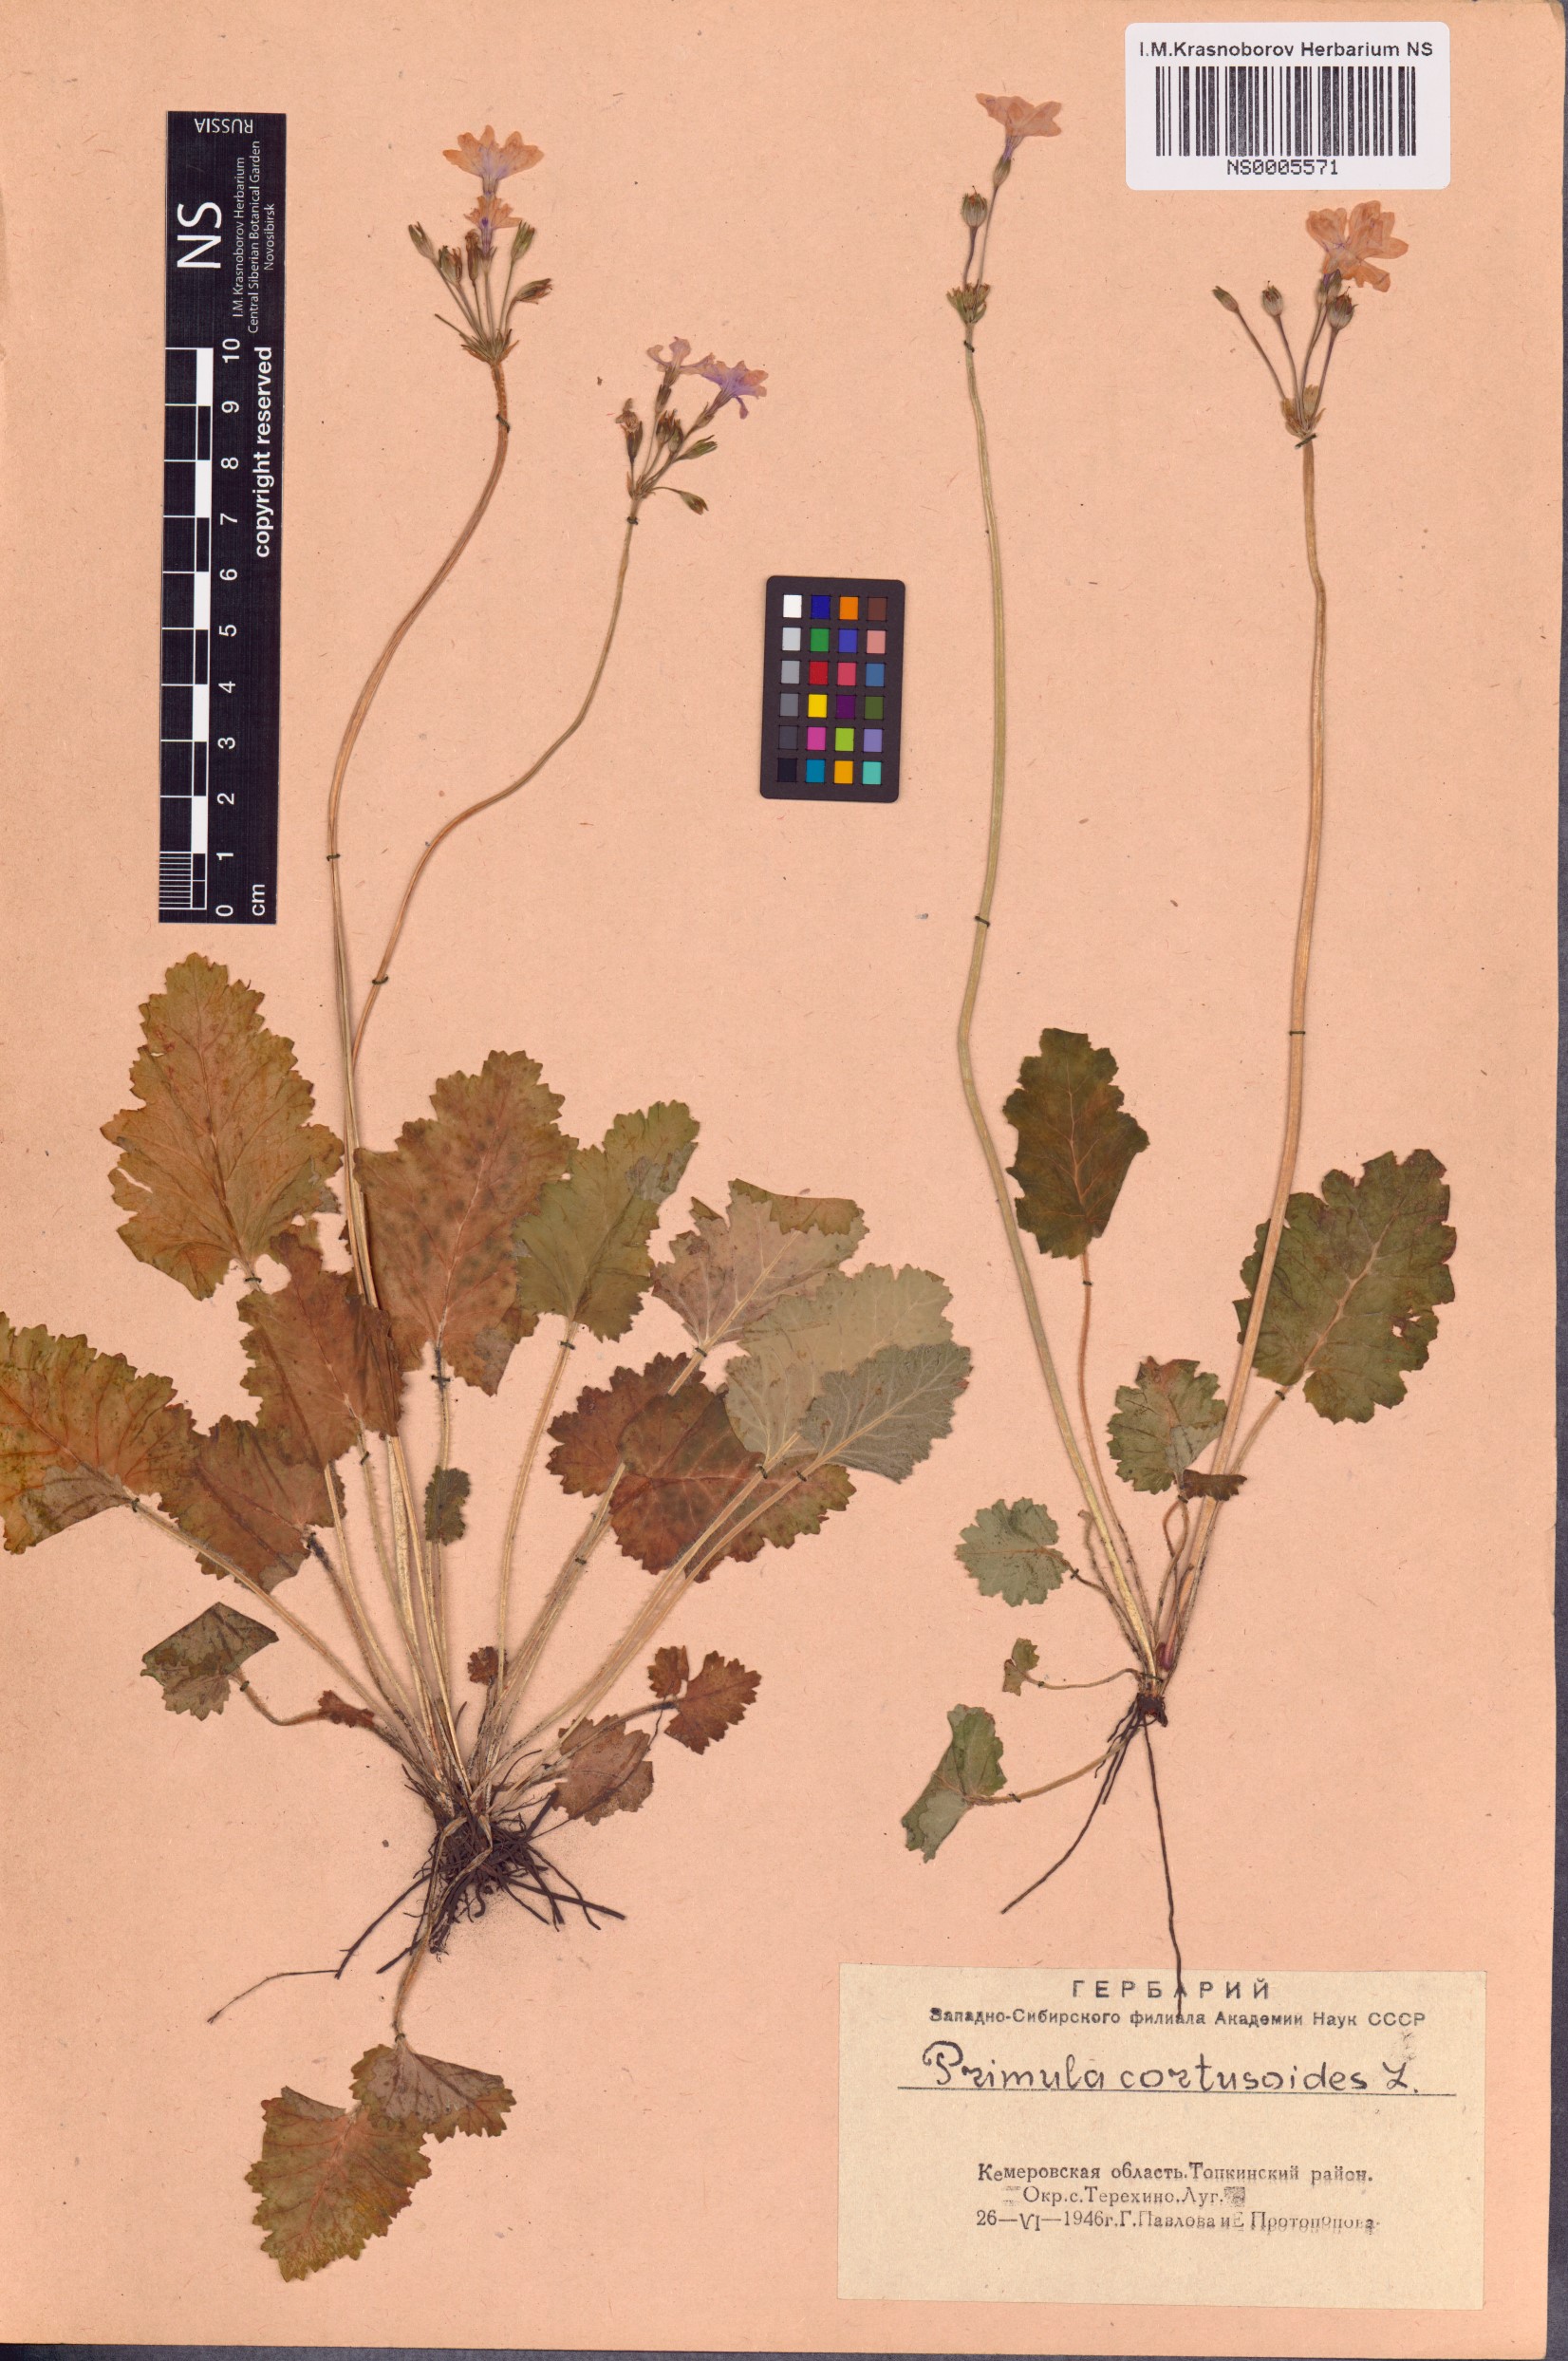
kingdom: Plantae
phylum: Tracheophyta
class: Magnoliopsida
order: Ericales
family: Primulaceae
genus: Primula
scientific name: Primula cortusoides
